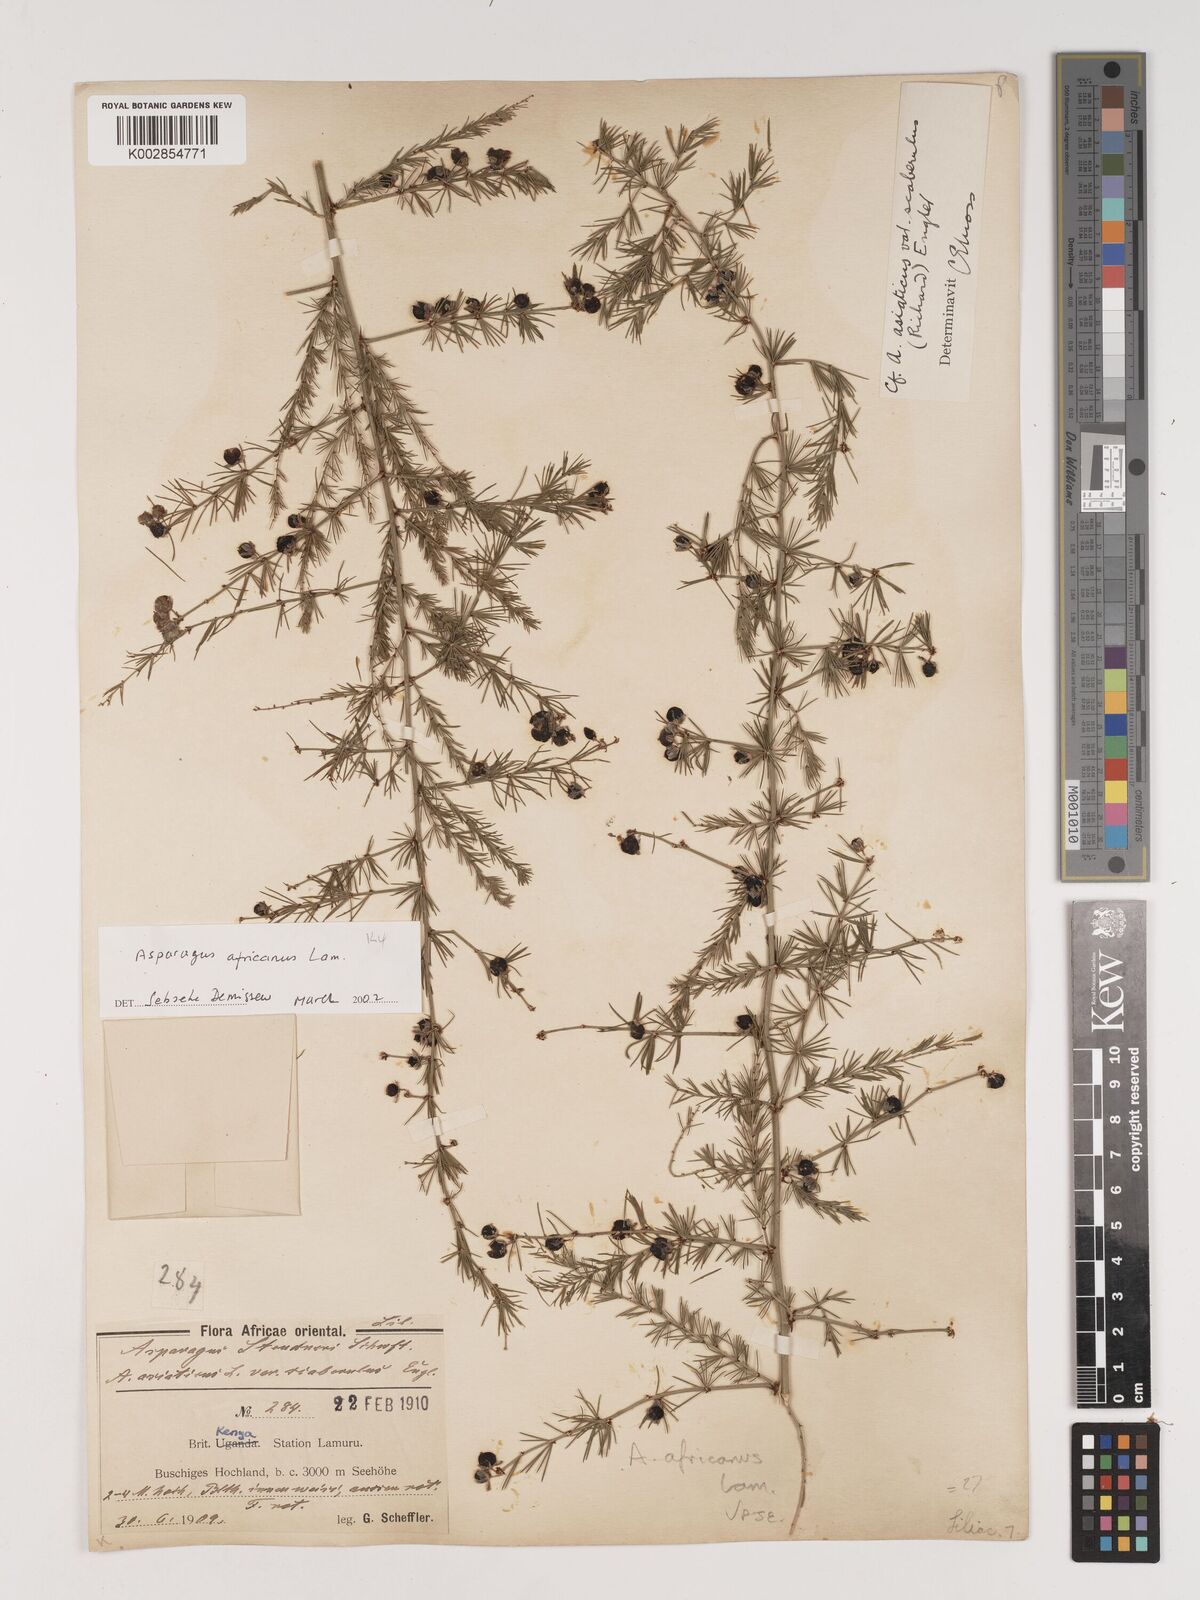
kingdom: Plantae
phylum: Tracheophyta
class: Liliopsida
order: Asparagales
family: Asparagaceae
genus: Asparagus
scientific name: Asparagus africanus
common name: Asparagus-fern
